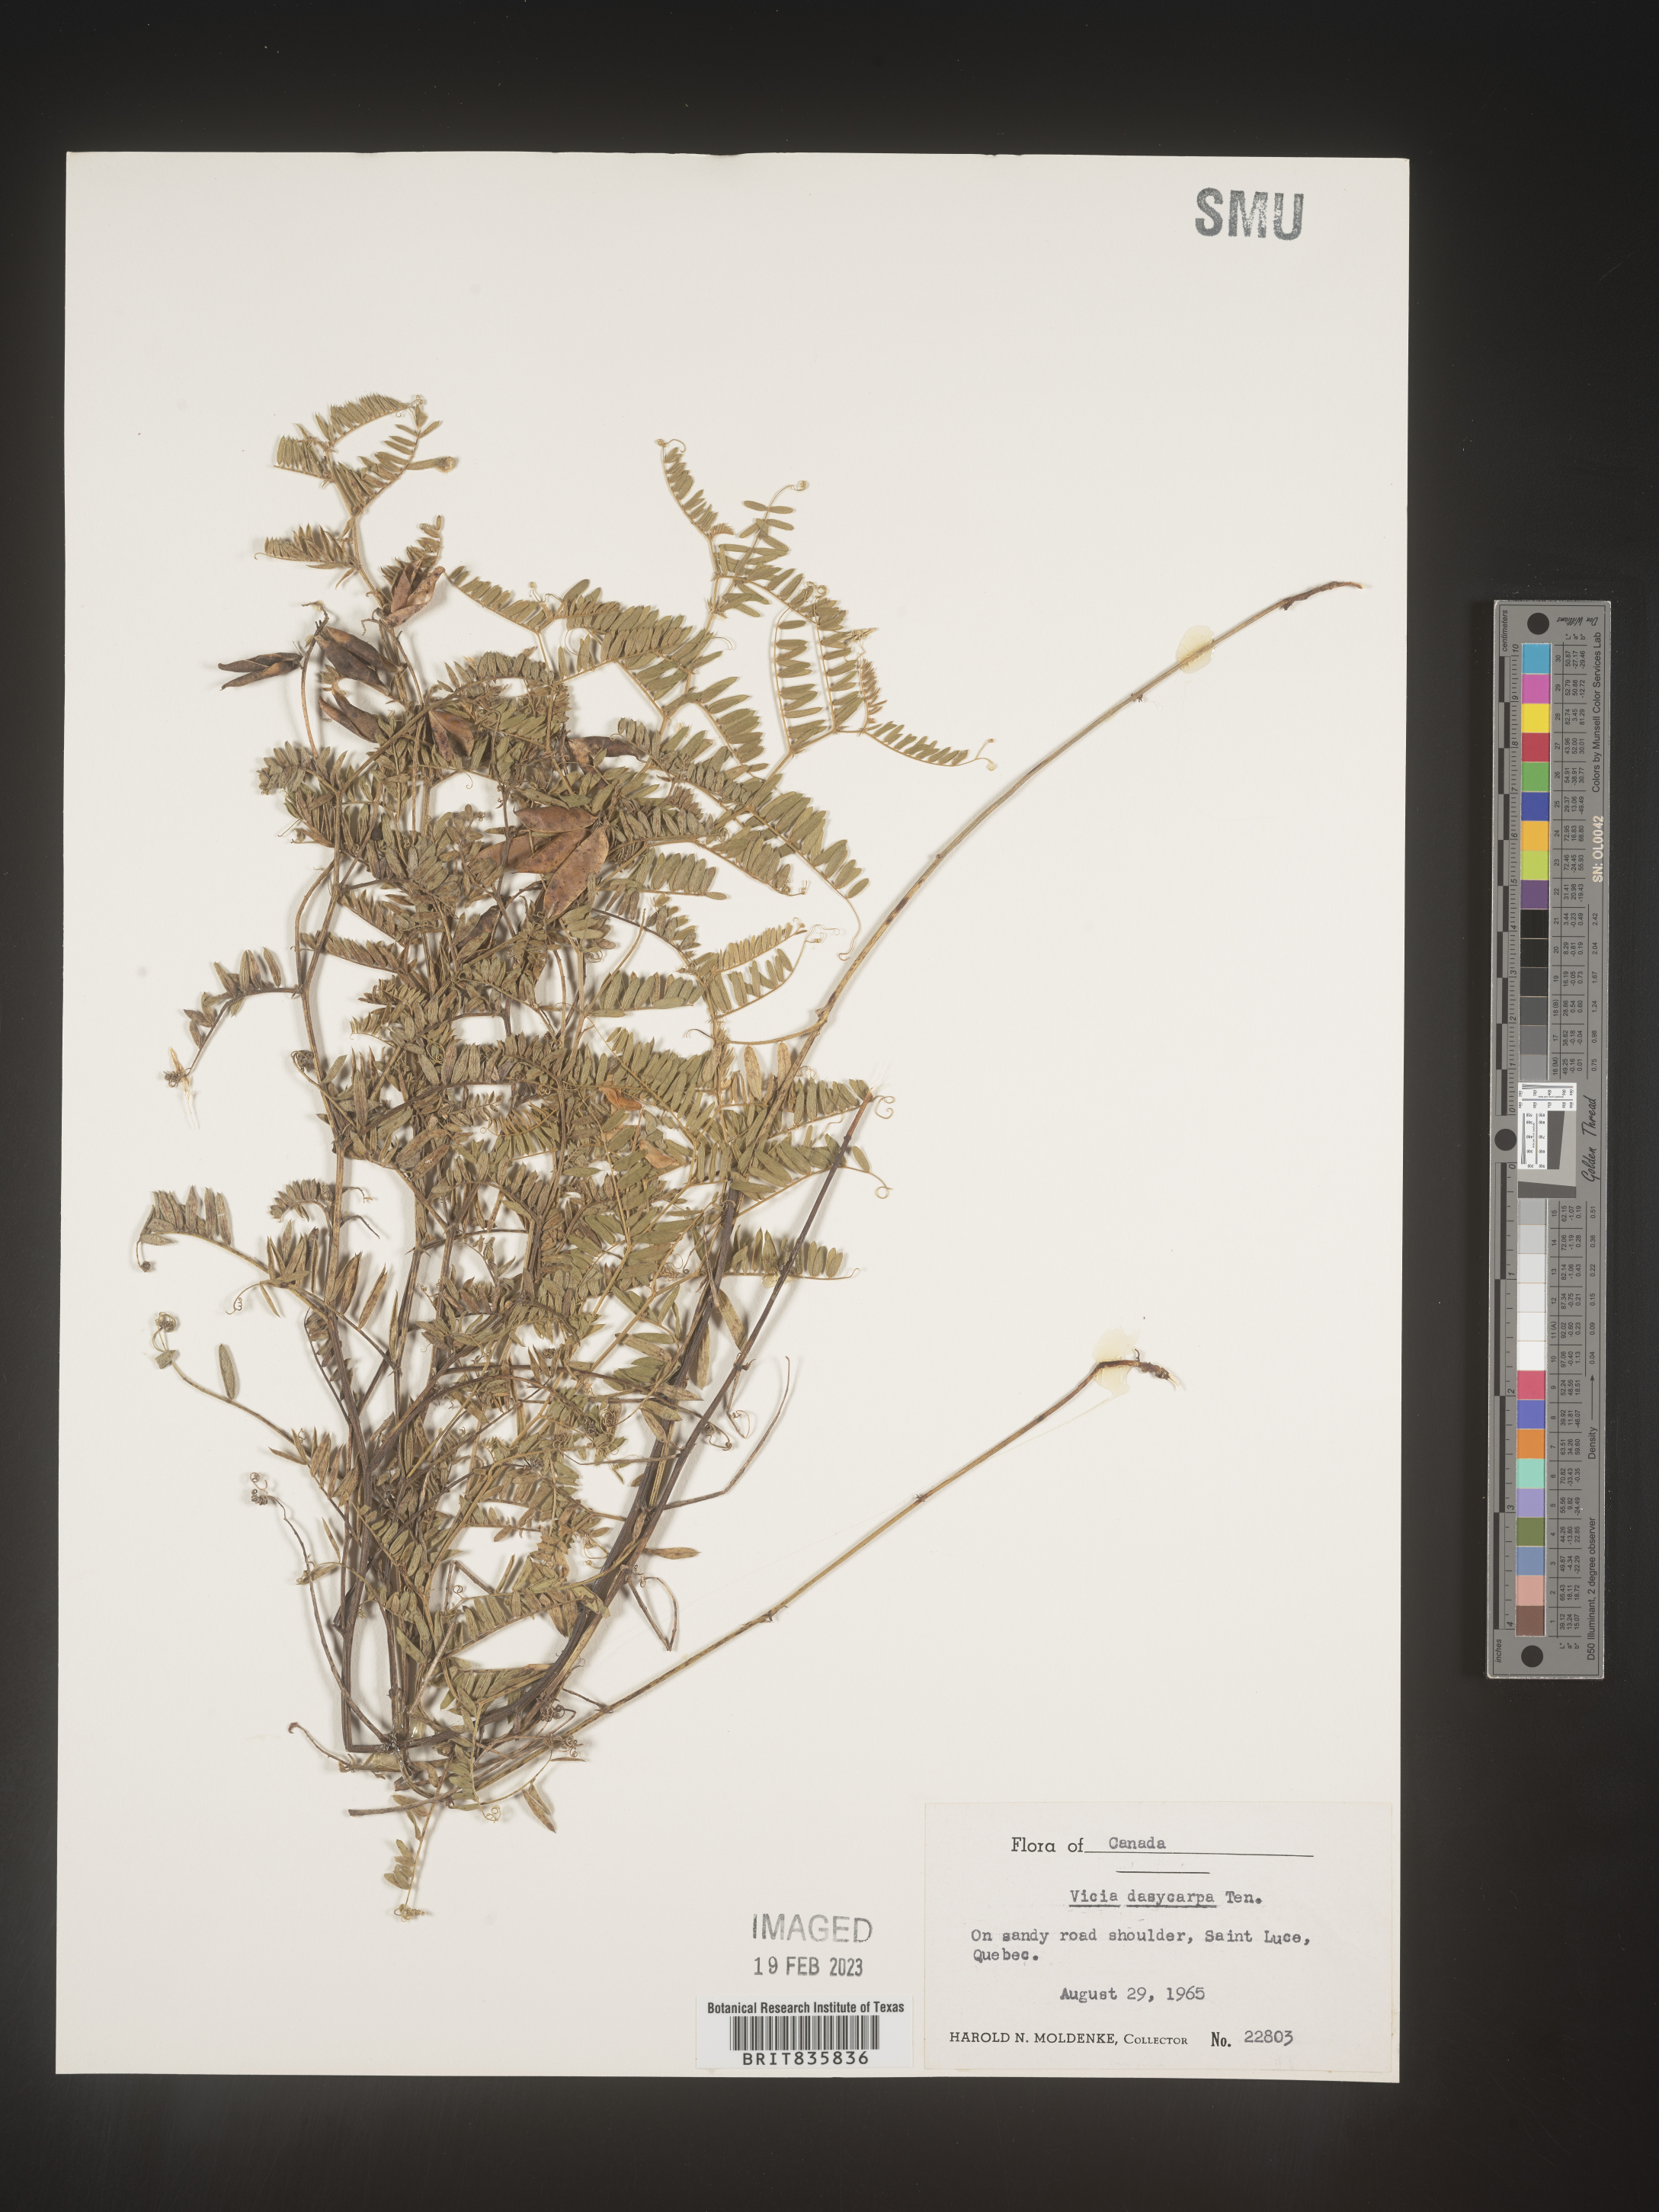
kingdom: Plantae
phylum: Tracheophyta
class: Magnoliopsida
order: Fabales
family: Fabaceae
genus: Vicia
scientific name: Vicia villosa
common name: Fodder vetch
